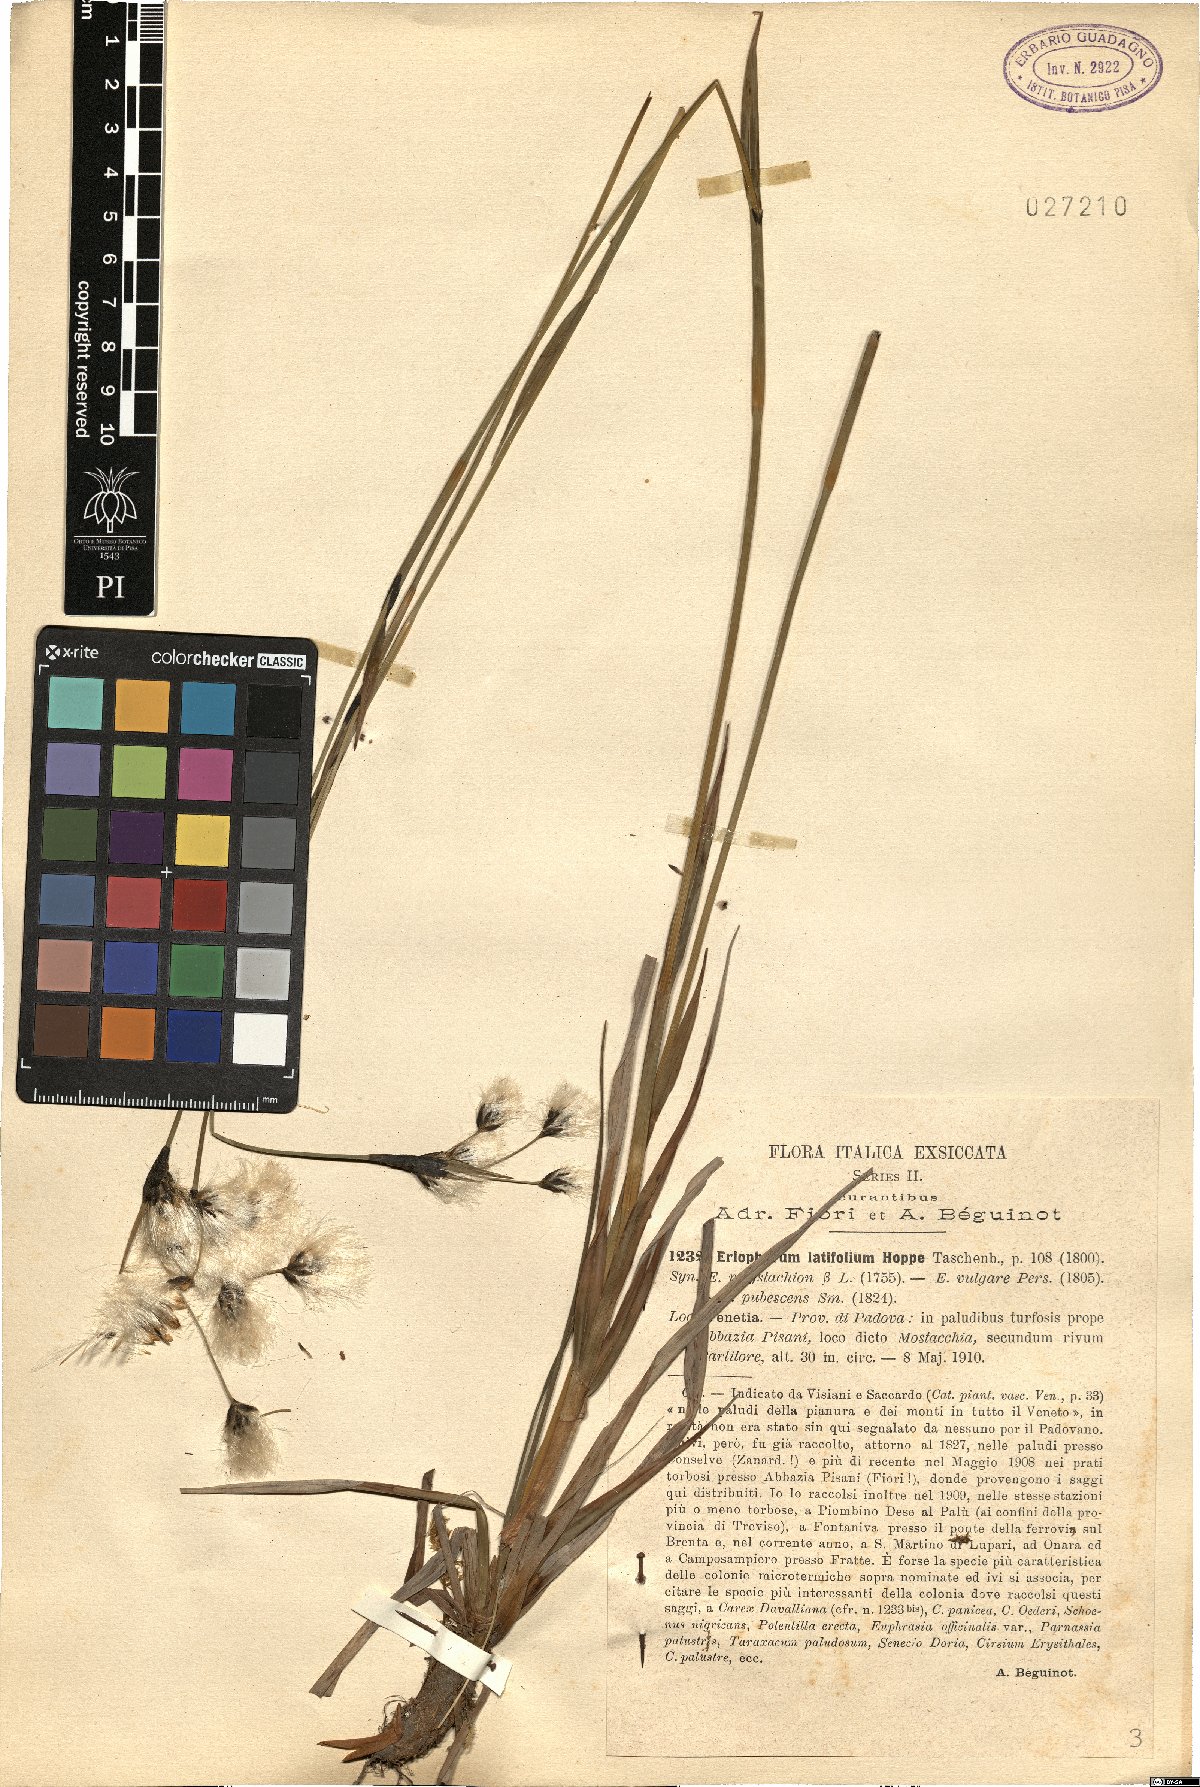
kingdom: Plantae
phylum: Tracheophyta
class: Liliopsida
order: Poales
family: Cyperaceae
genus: Eriophorum
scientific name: Eriophorum latifolium
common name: Broad-leaved cottongrass
